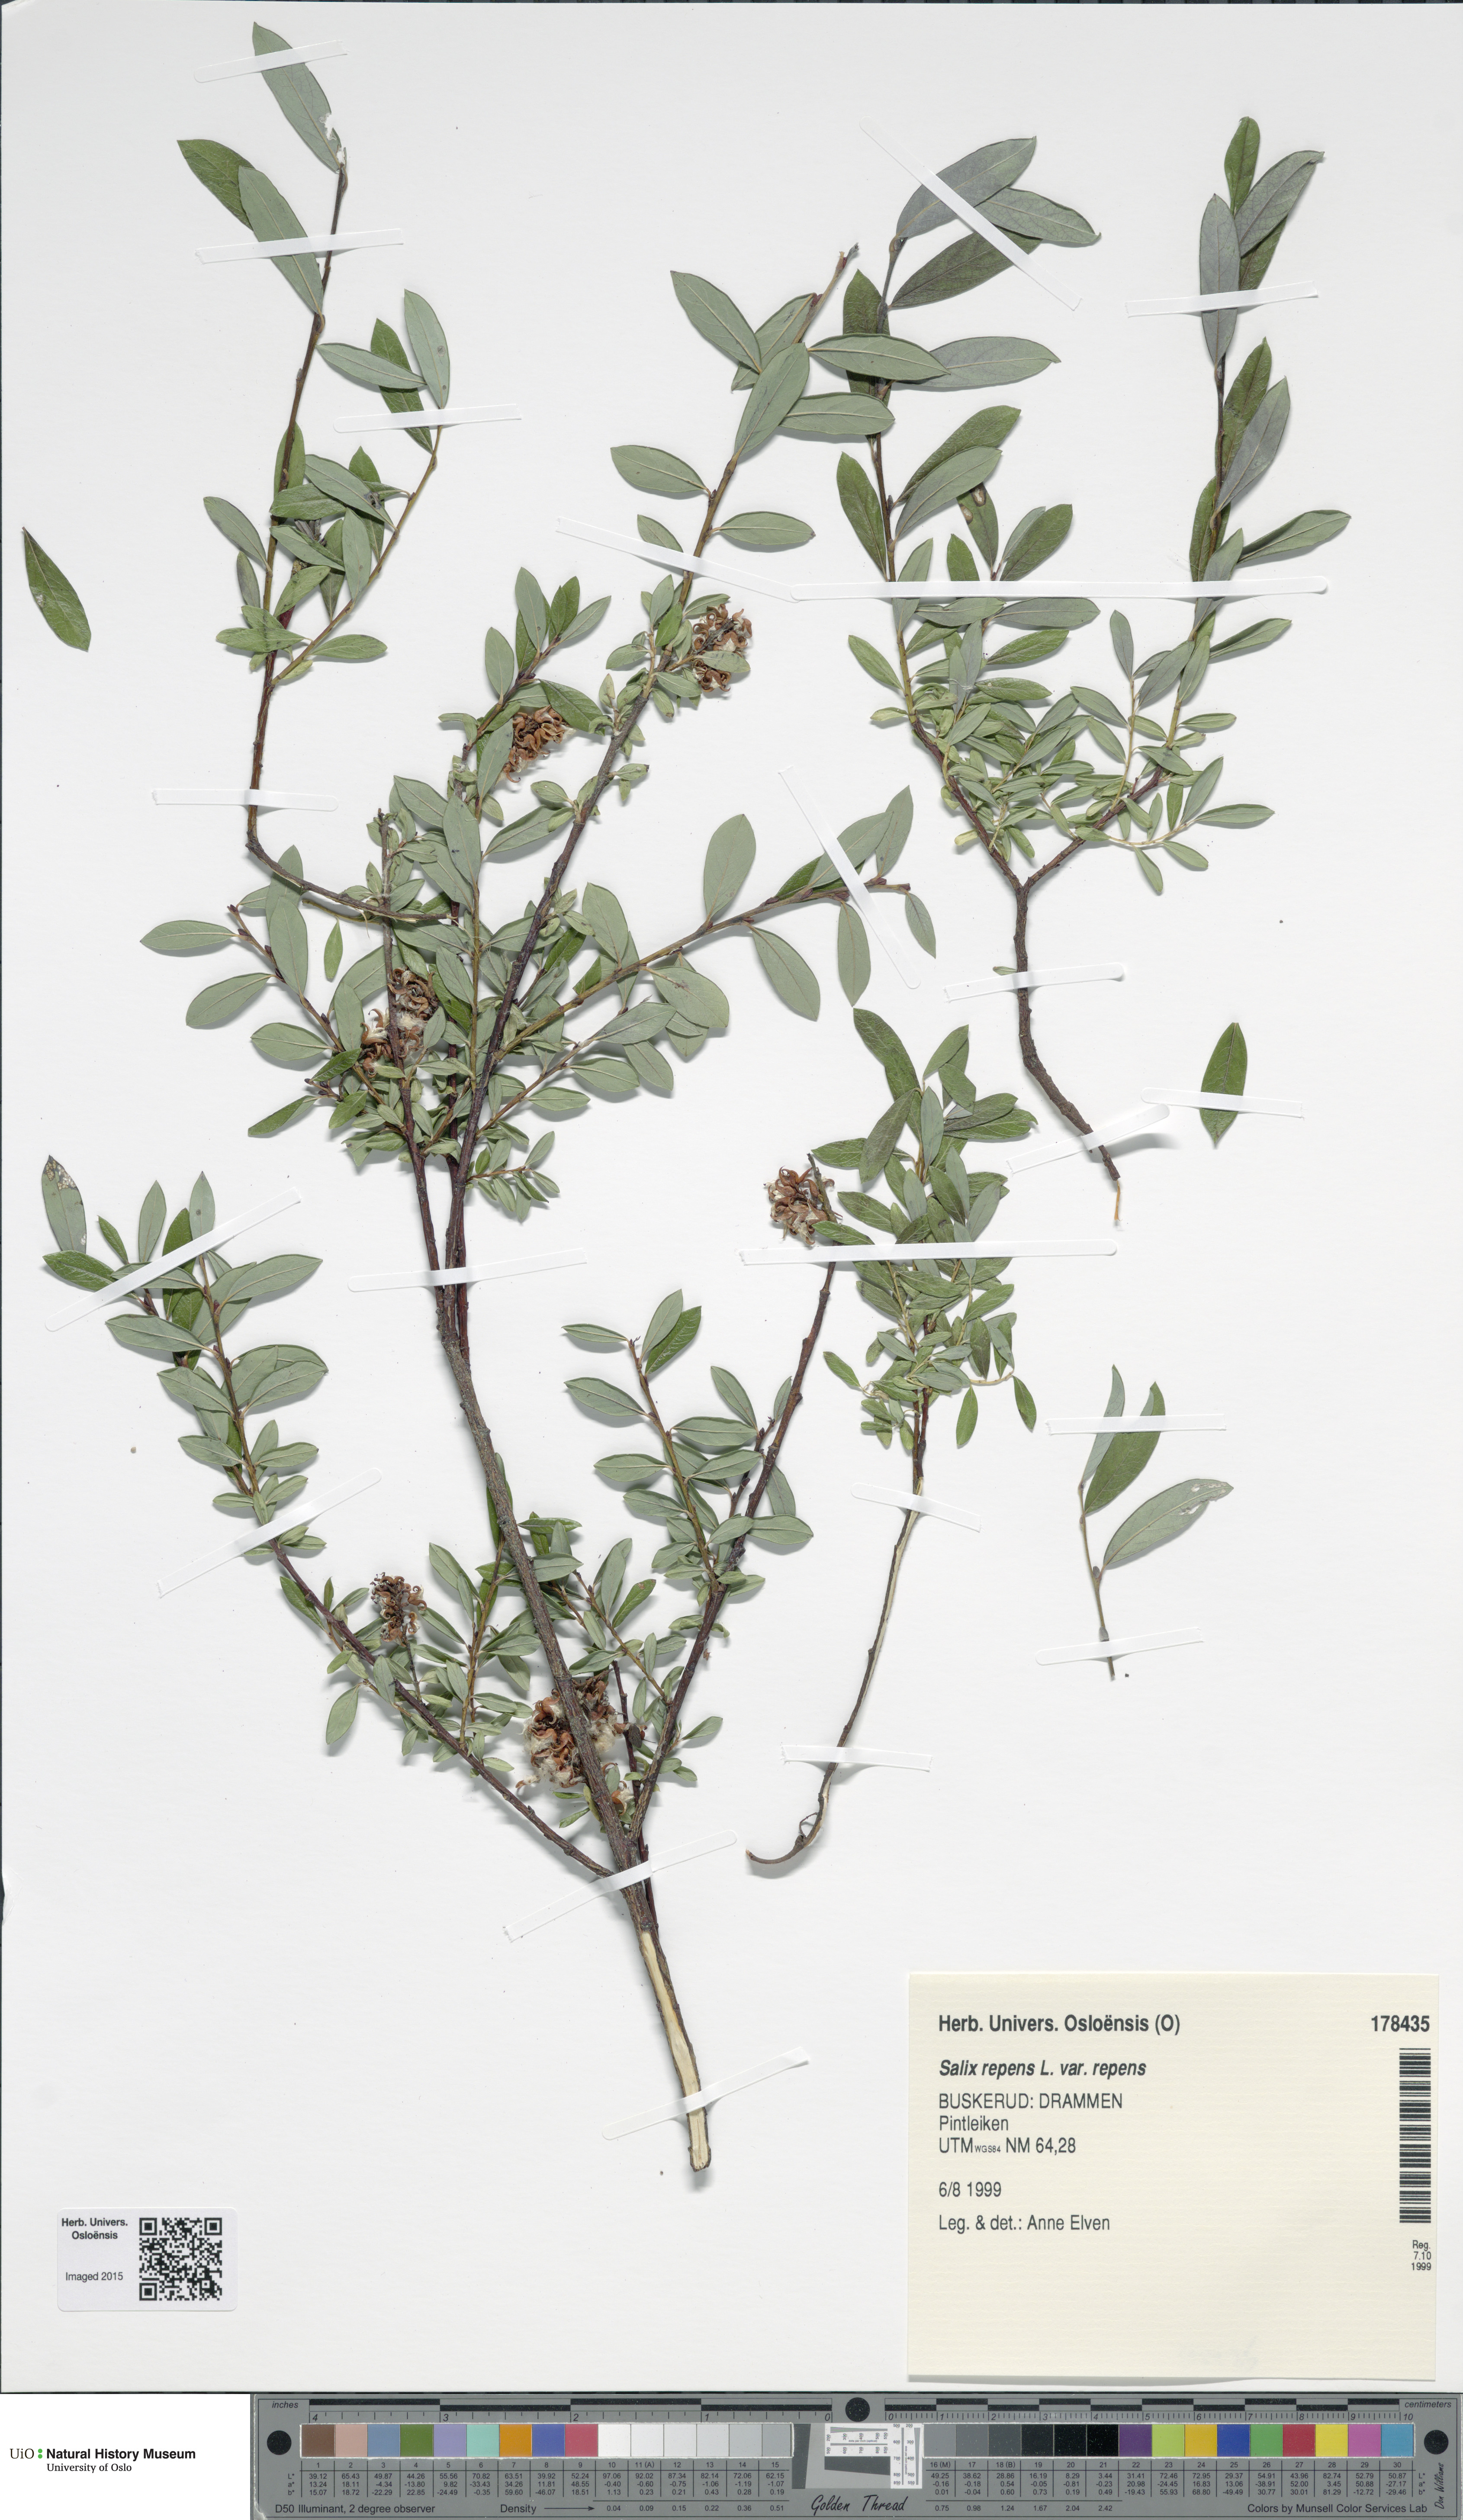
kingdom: Plantae
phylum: Tracheophyta
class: Magnoliopsida
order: Malpighiales
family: Salicaceae
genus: Salix
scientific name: Salix repens
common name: Creeping willow
